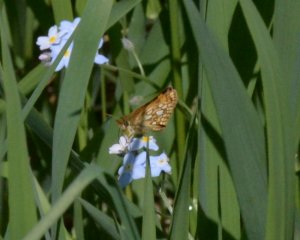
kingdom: Animalia
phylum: Arthropoda
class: Insecta
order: Lepidoptera
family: Hesperiidae
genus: Carterocephalus
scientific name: Carterocephalus palaemon
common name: Chequered Skipper
